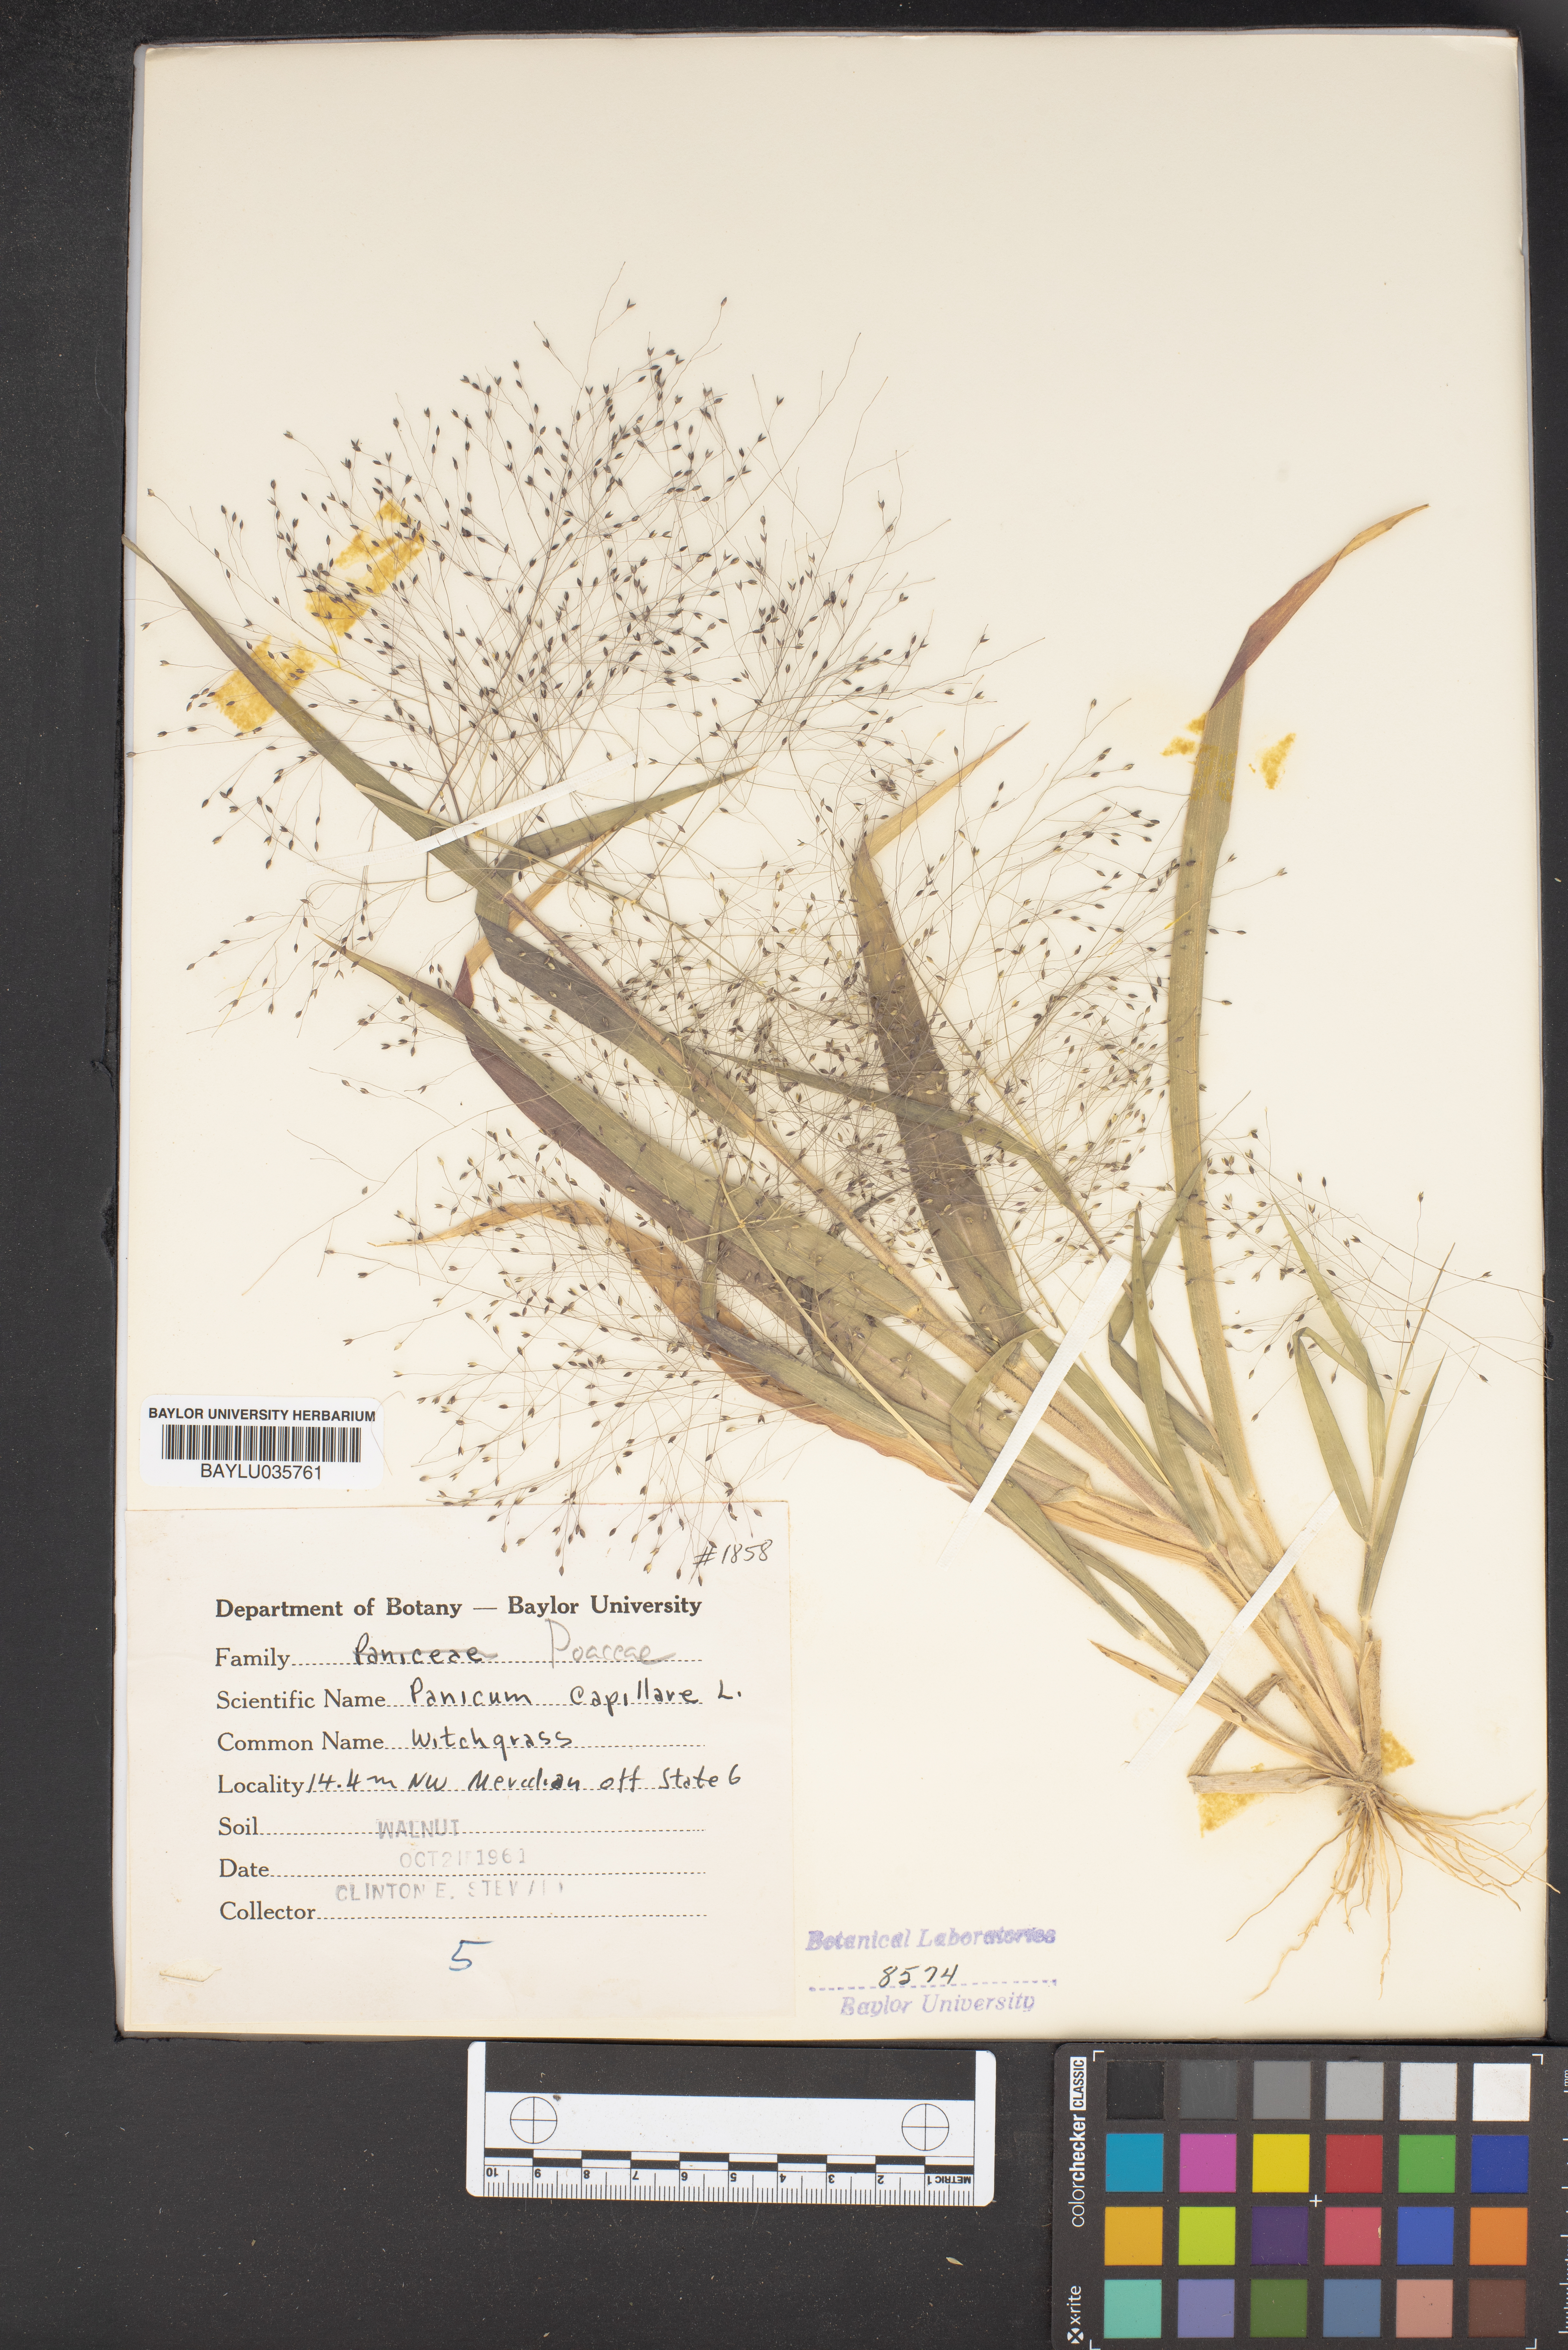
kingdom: Plantae
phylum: Tracheophyta
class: Liliopsida
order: Poales
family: Poaceae
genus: Panicum
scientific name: Panicum capillare
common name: Witch-grass
